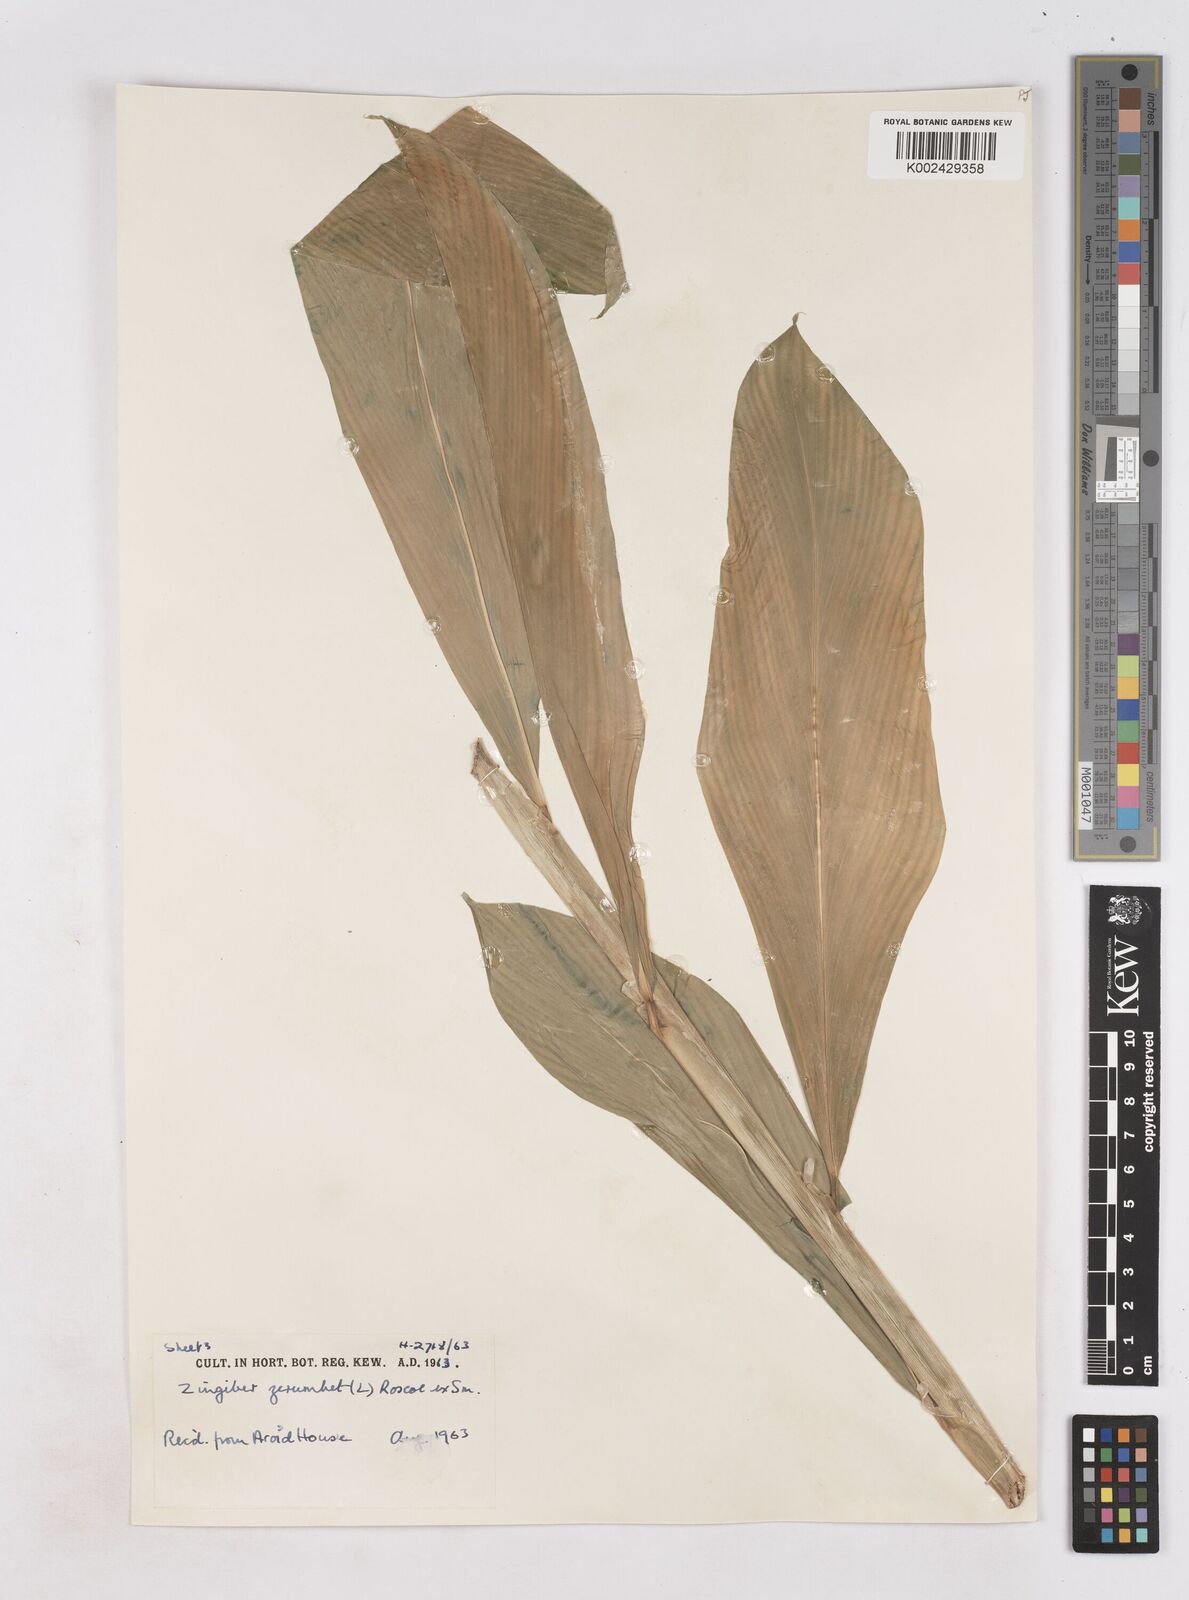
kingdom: Plantae
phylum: Tracheophyta
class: Liliopsida
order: Zingiberales
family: Zingiberaceae
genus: Zingiber
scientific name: Zingiber zerumbet
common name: Bitter ginger
